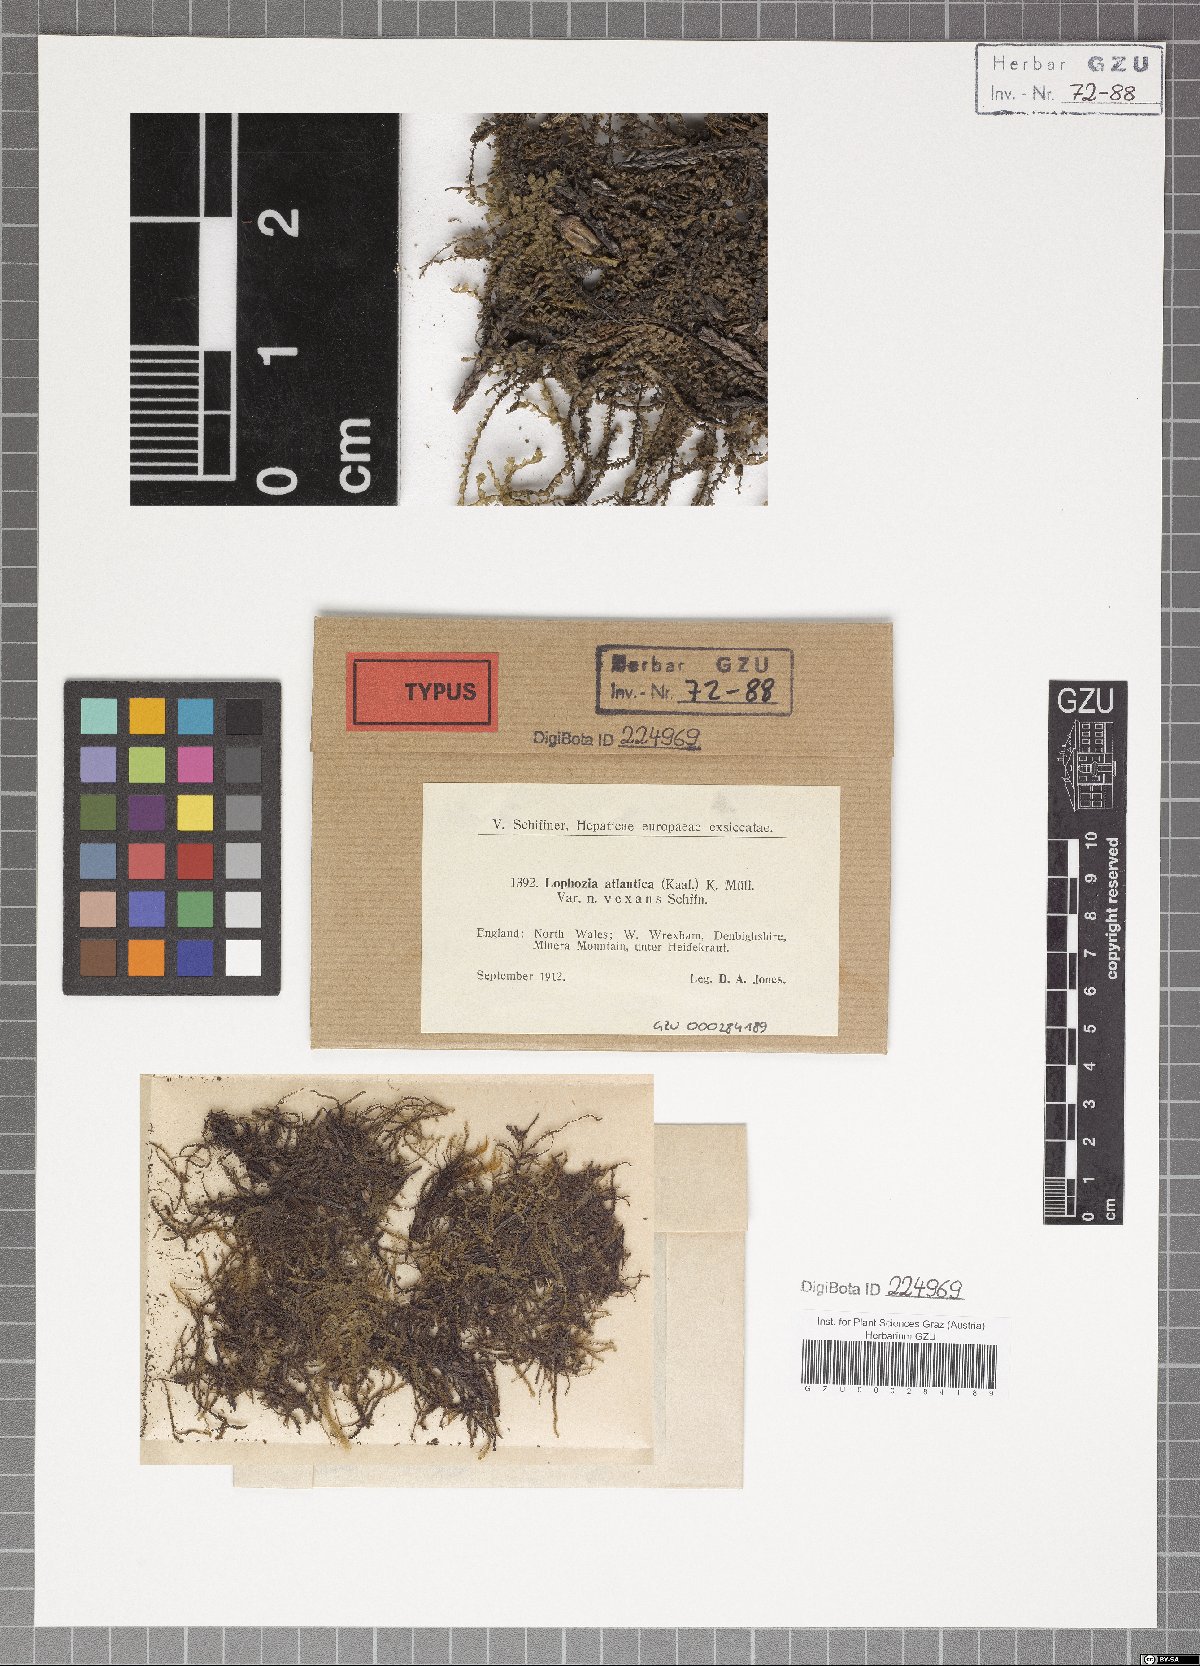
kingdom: Plantae
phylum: Marchantiophyta
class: Jungermanniopsida
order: Jungermanniales
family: Lophoziaceae
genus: Lophozia
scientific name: Lophozia atlantica
